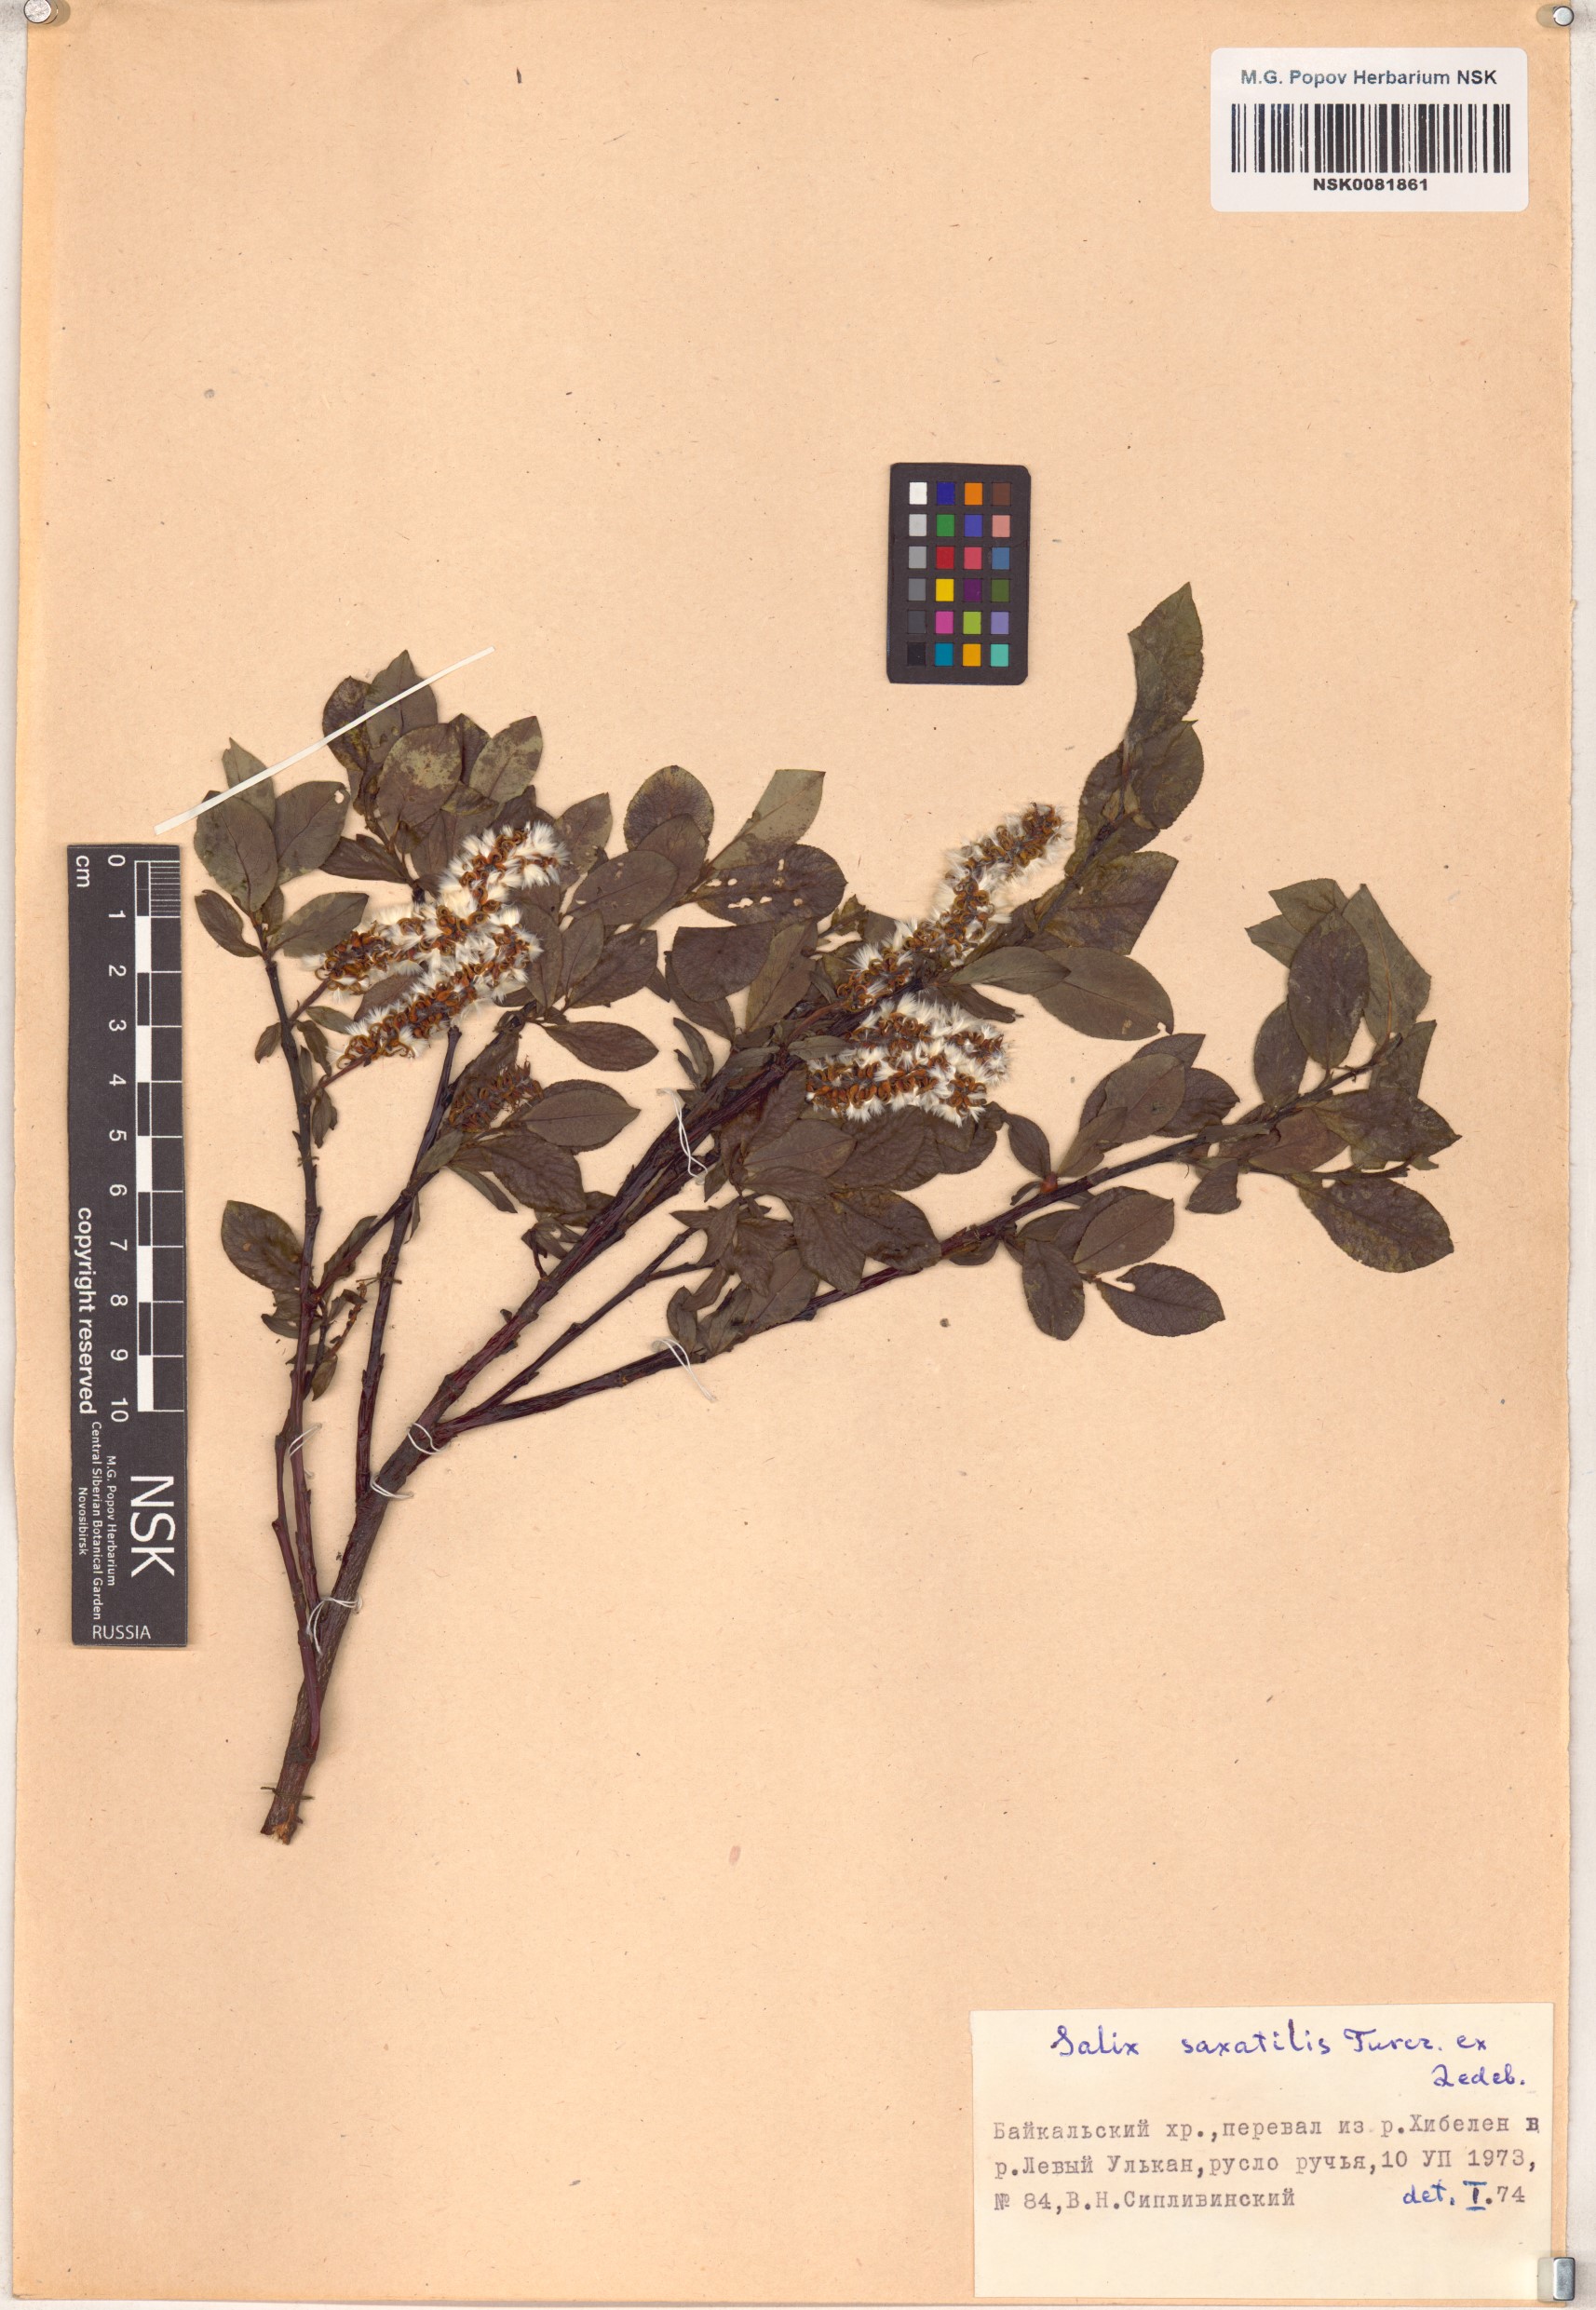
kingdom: Plantae
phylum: Tracheophyta
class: Magnoliopsida
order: Malpighiales
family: Salicaceae
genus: Salix
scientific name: Salix saxatilis
